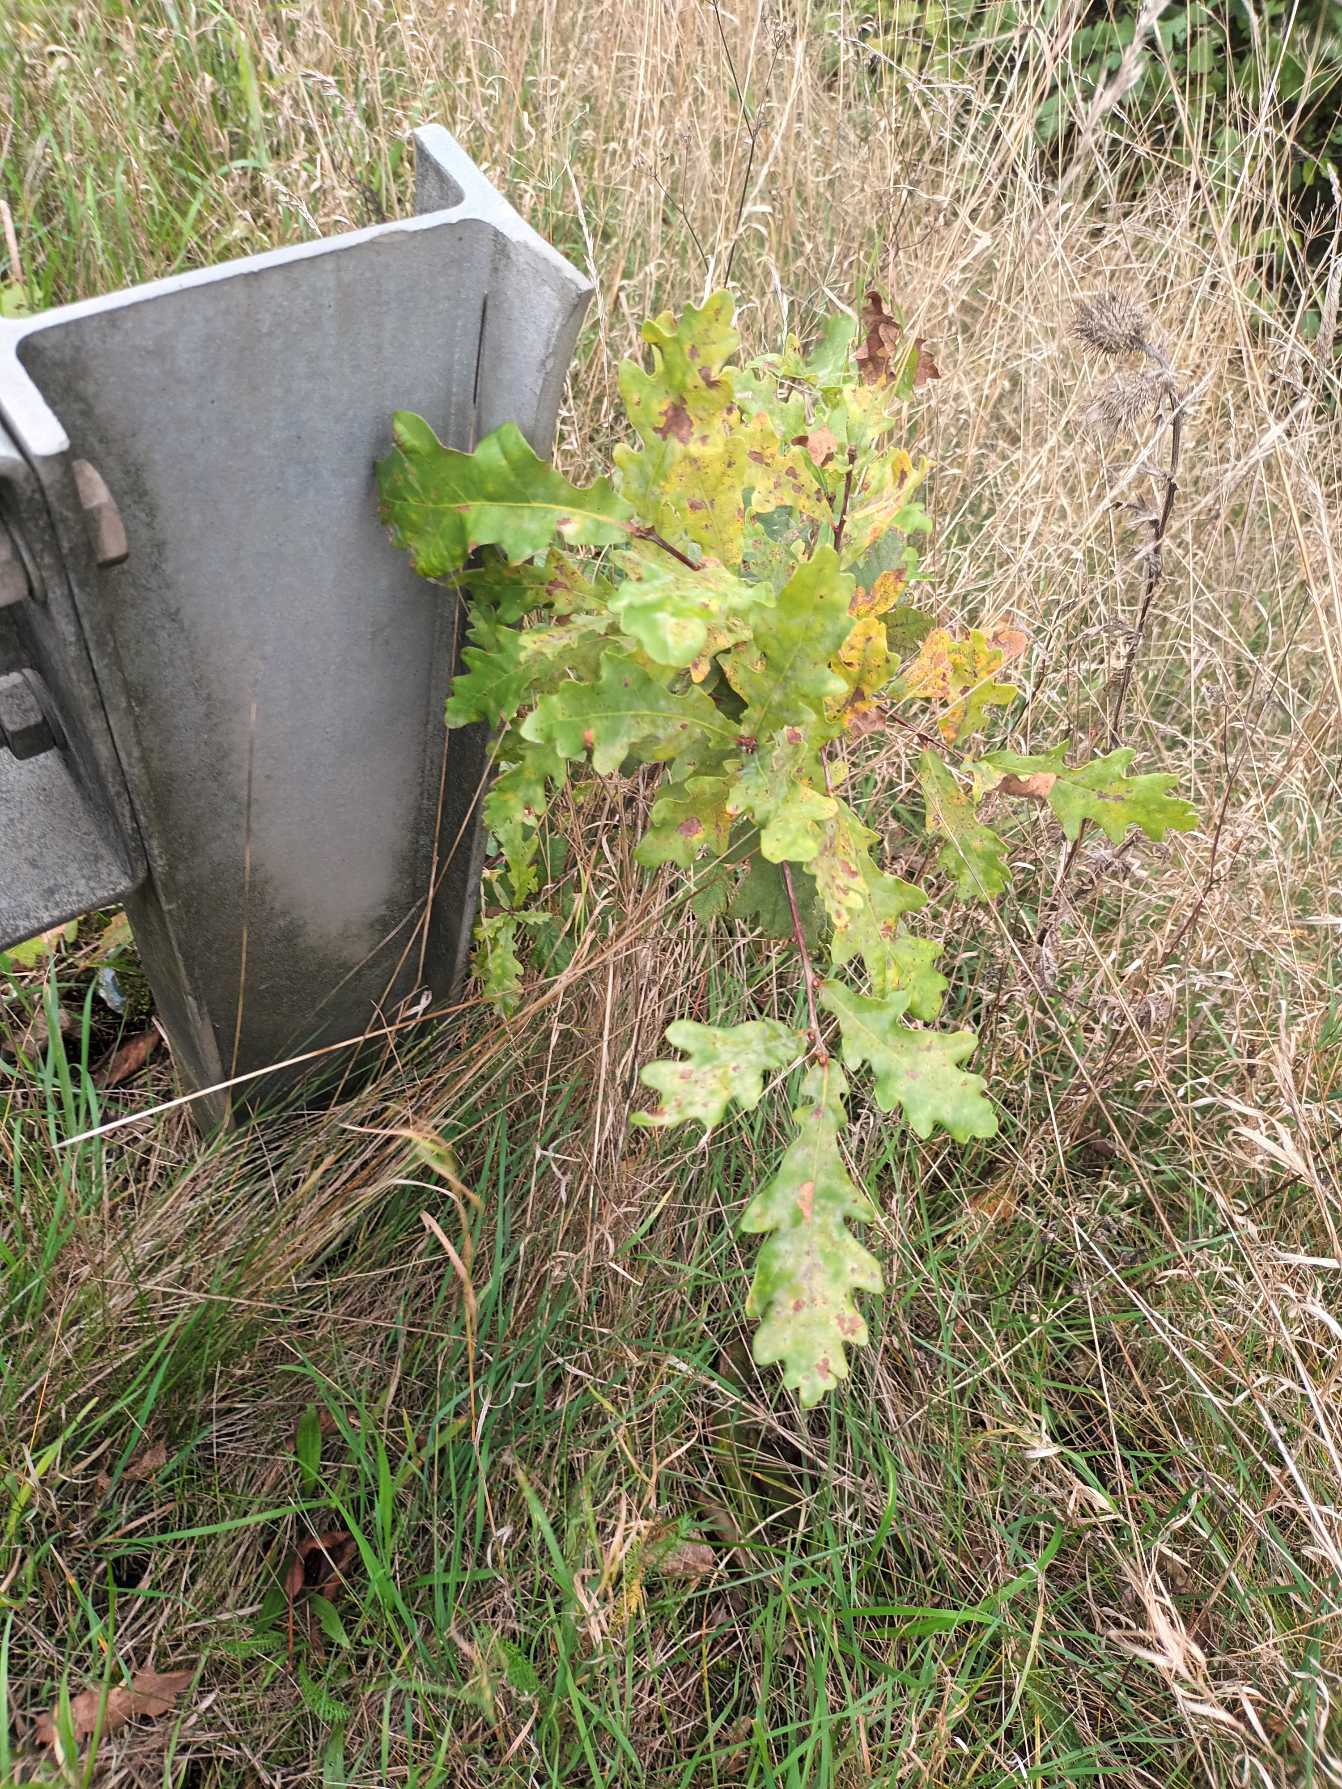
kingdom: Plantae
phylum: Tracheophyta
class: Magnoliopsida
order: Fagales
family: Fagaceae
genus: Quercus
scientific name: Quercus robur
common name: Stilk-eg/almindelig eg
